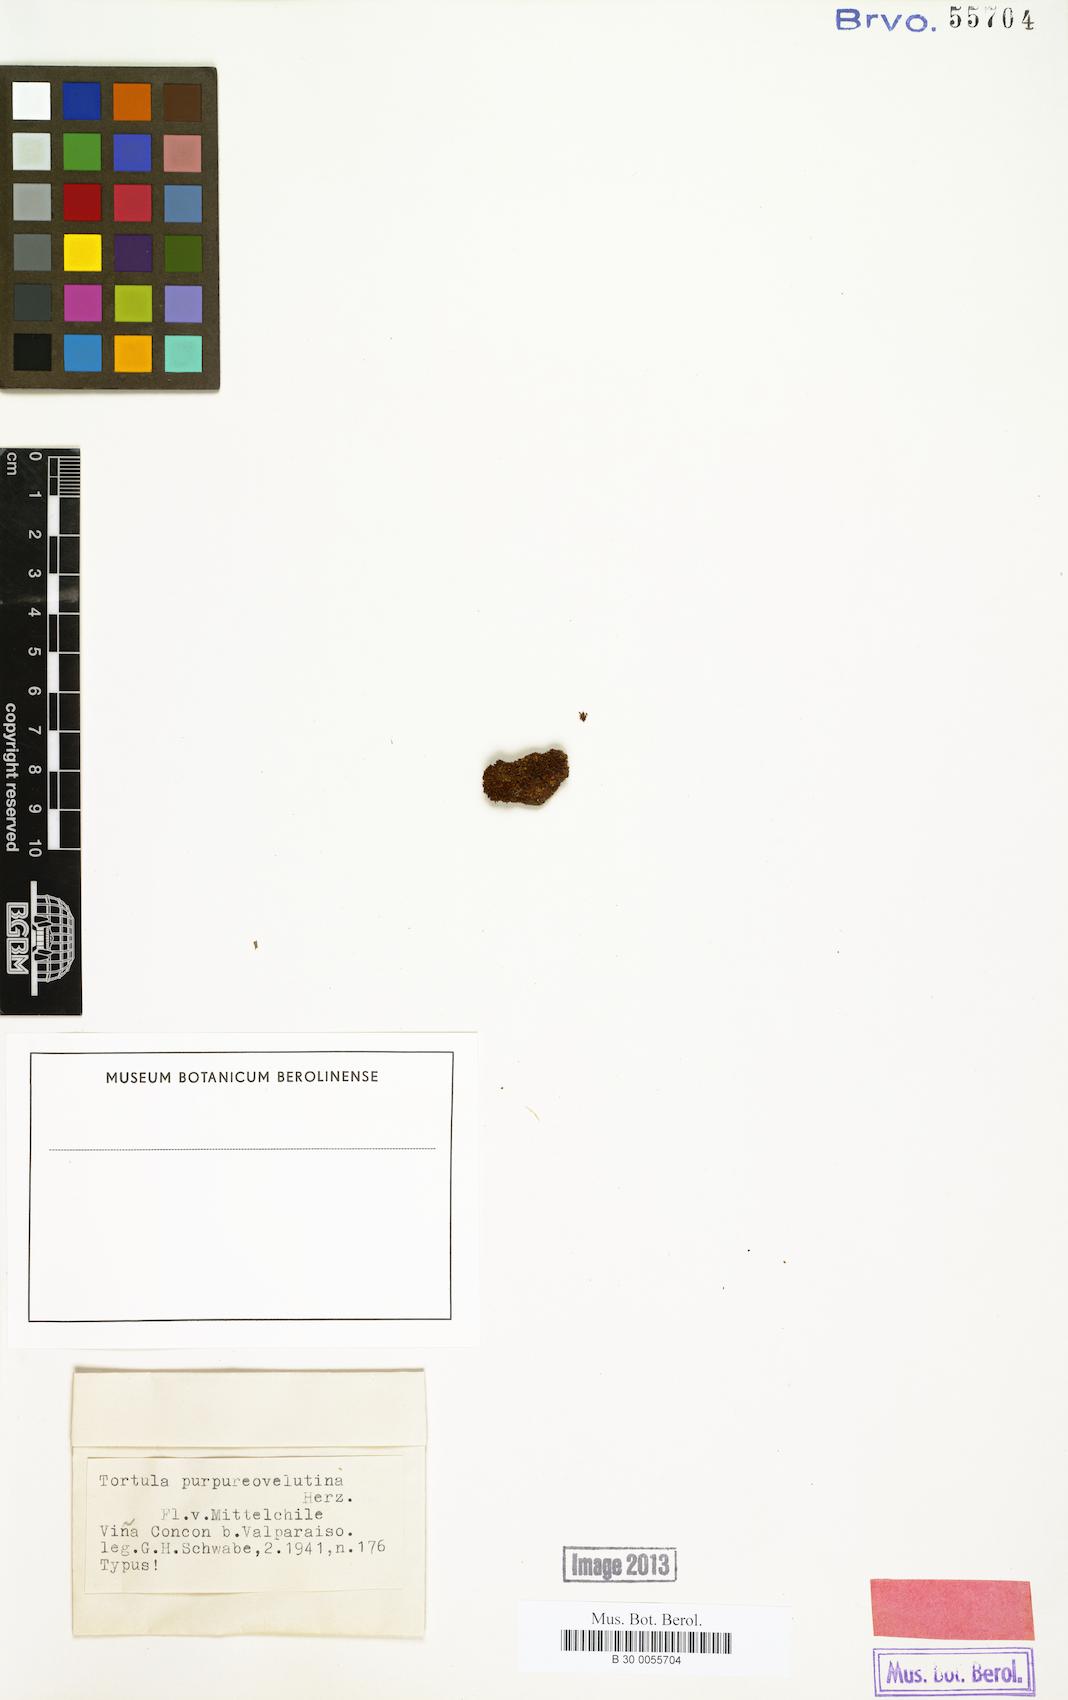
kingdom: Plantae
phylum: Bryophyta
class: Bryopsida
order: Pottiales
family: Pottiaceae
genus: Tortula
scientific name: Tortula platyphylla
